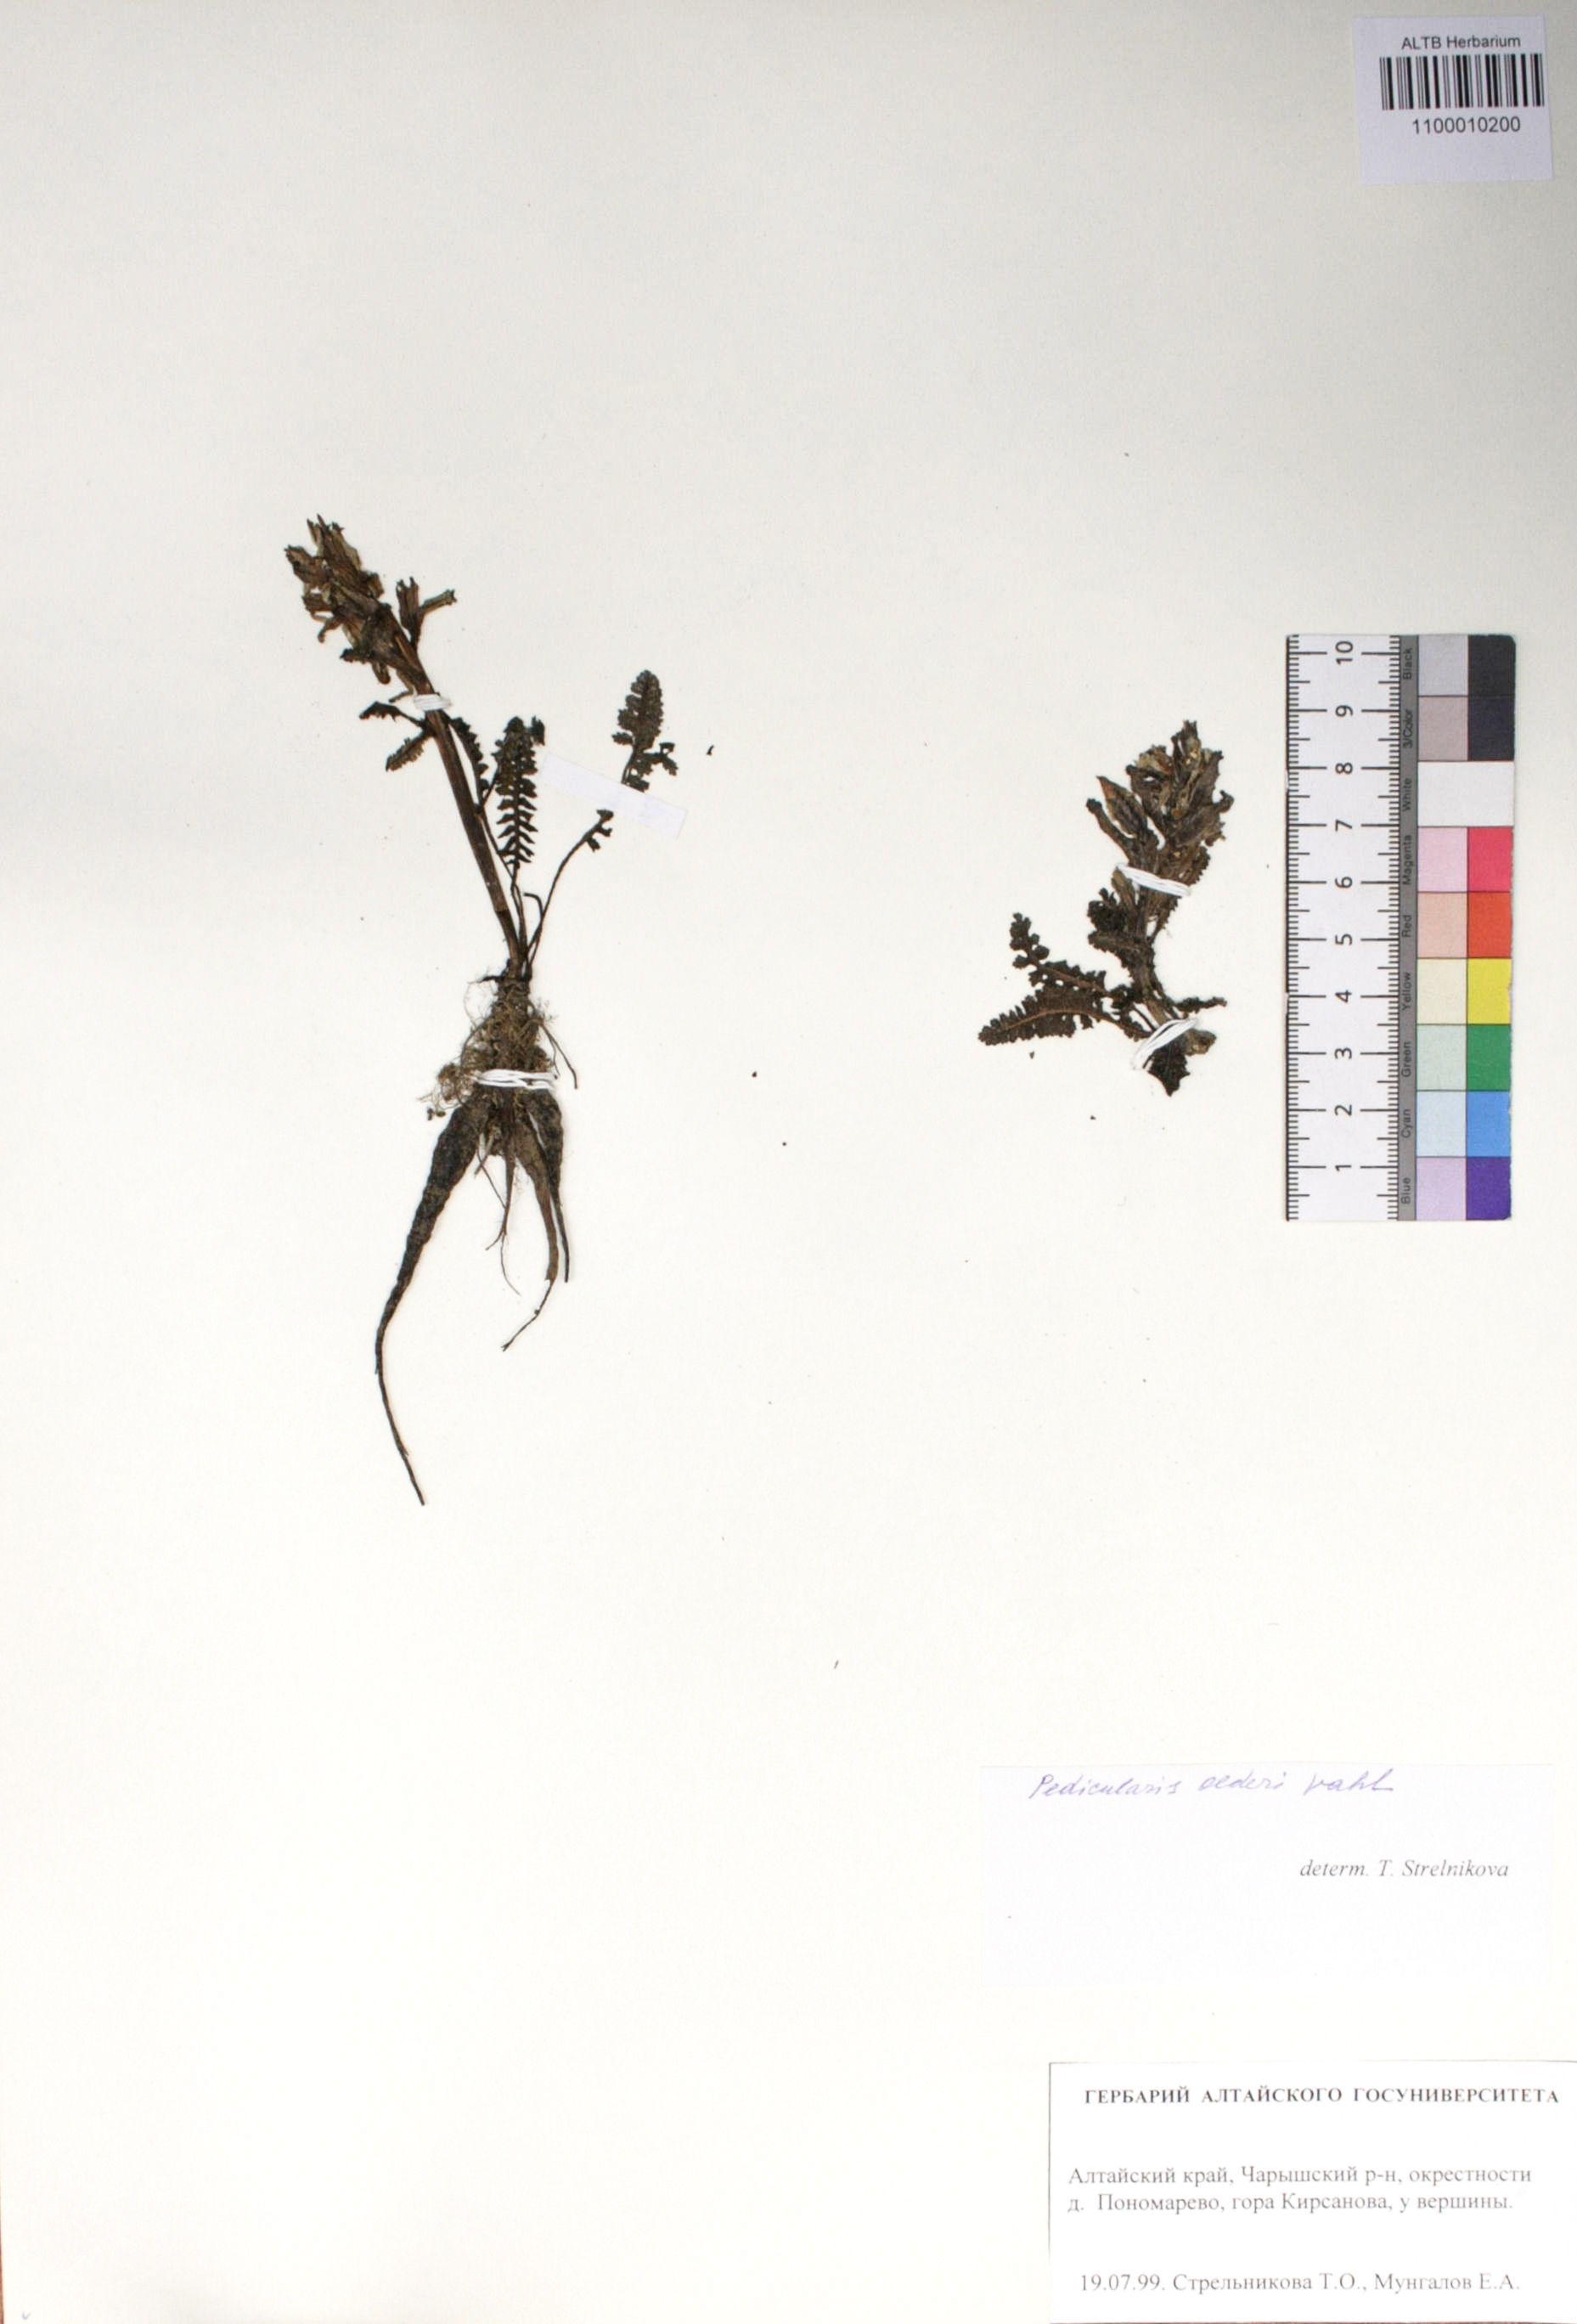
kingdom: Plantae
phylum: Tracheophyta
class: Magnoliopsida
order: Caryophyllales
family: Caryophyllaceae
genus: Silene
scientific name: Silene graminifolia
